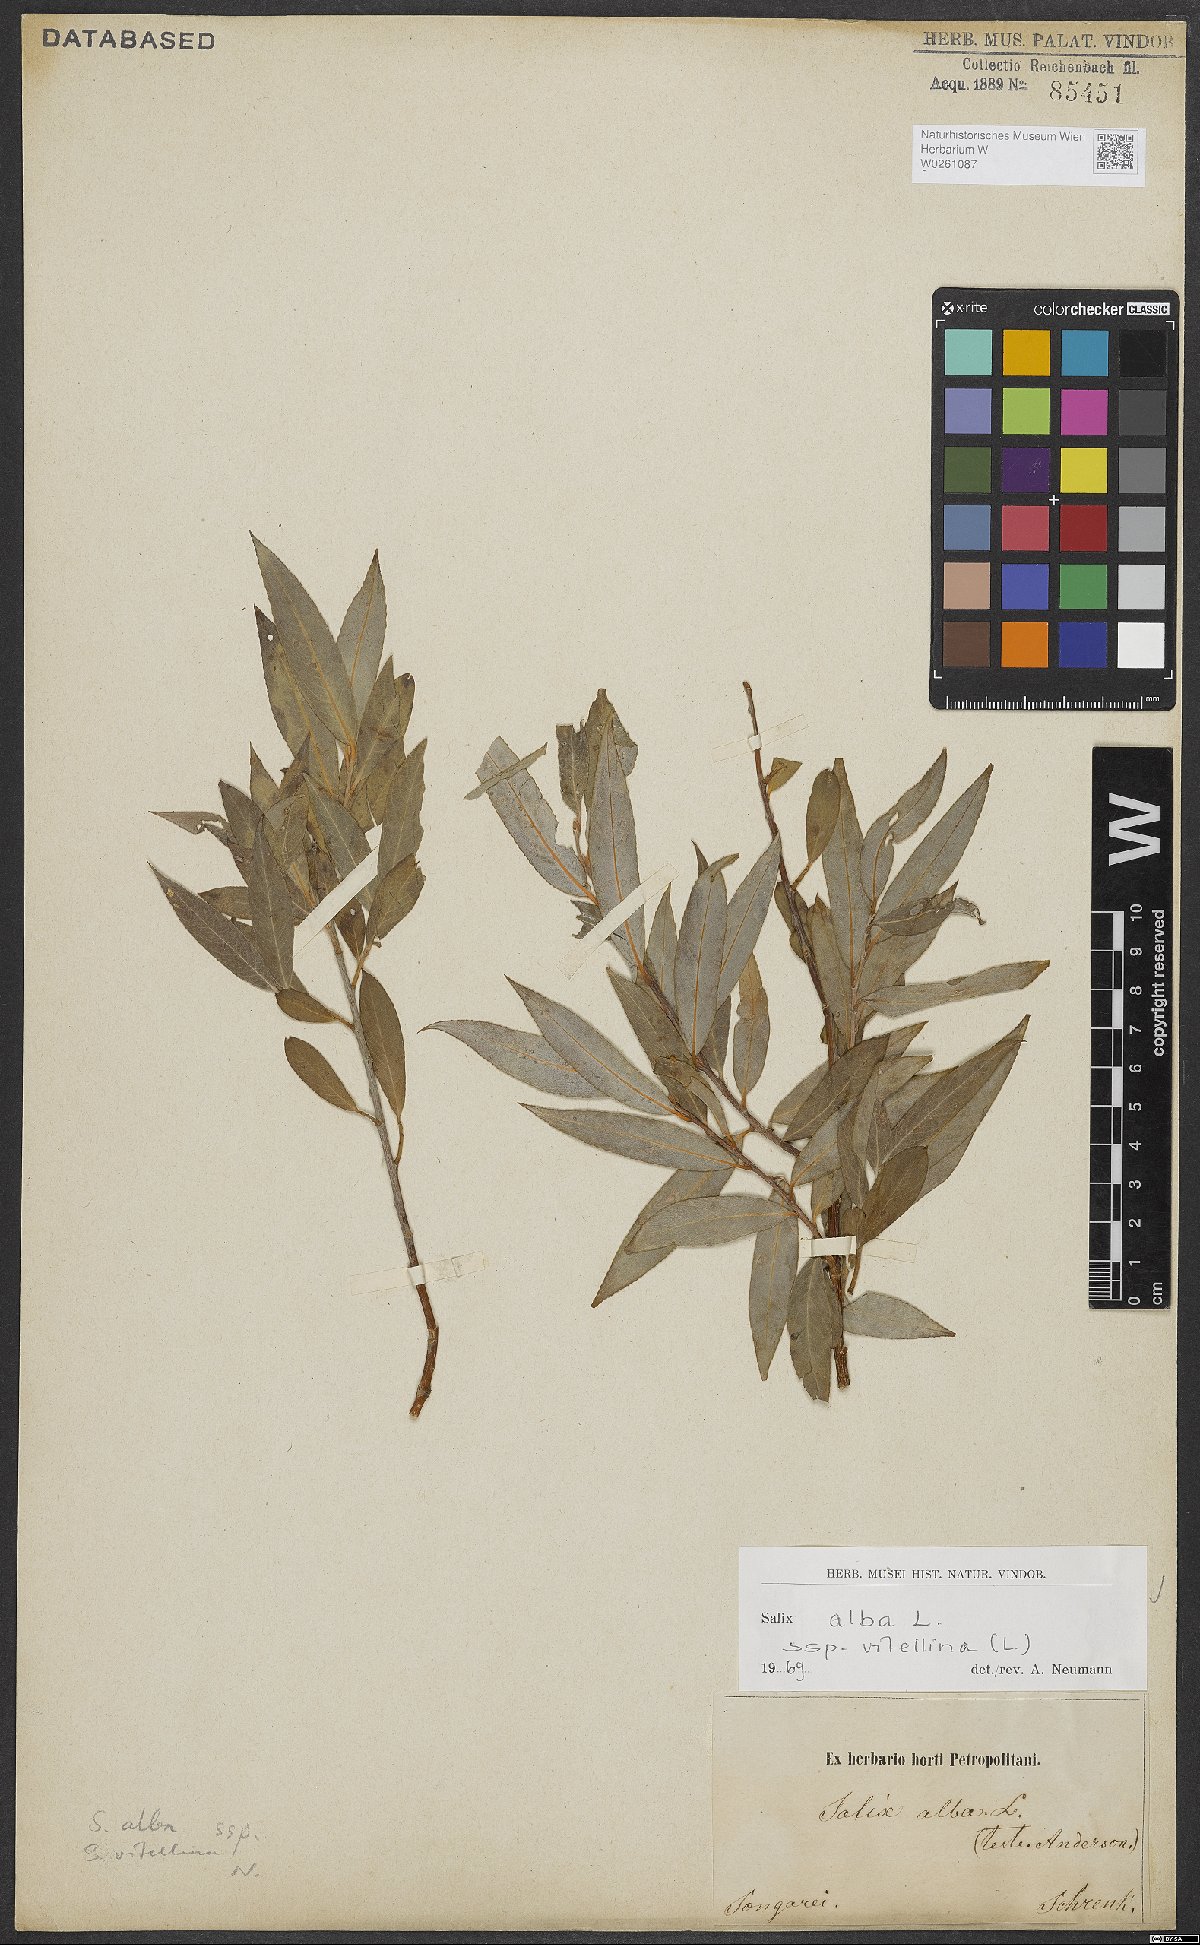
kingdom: Plantae
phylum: Tracheophyta
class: Magnoliopsida
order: Malpighiales
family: Salicaceae
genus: Salix
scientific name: Salix alba
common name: White willow
